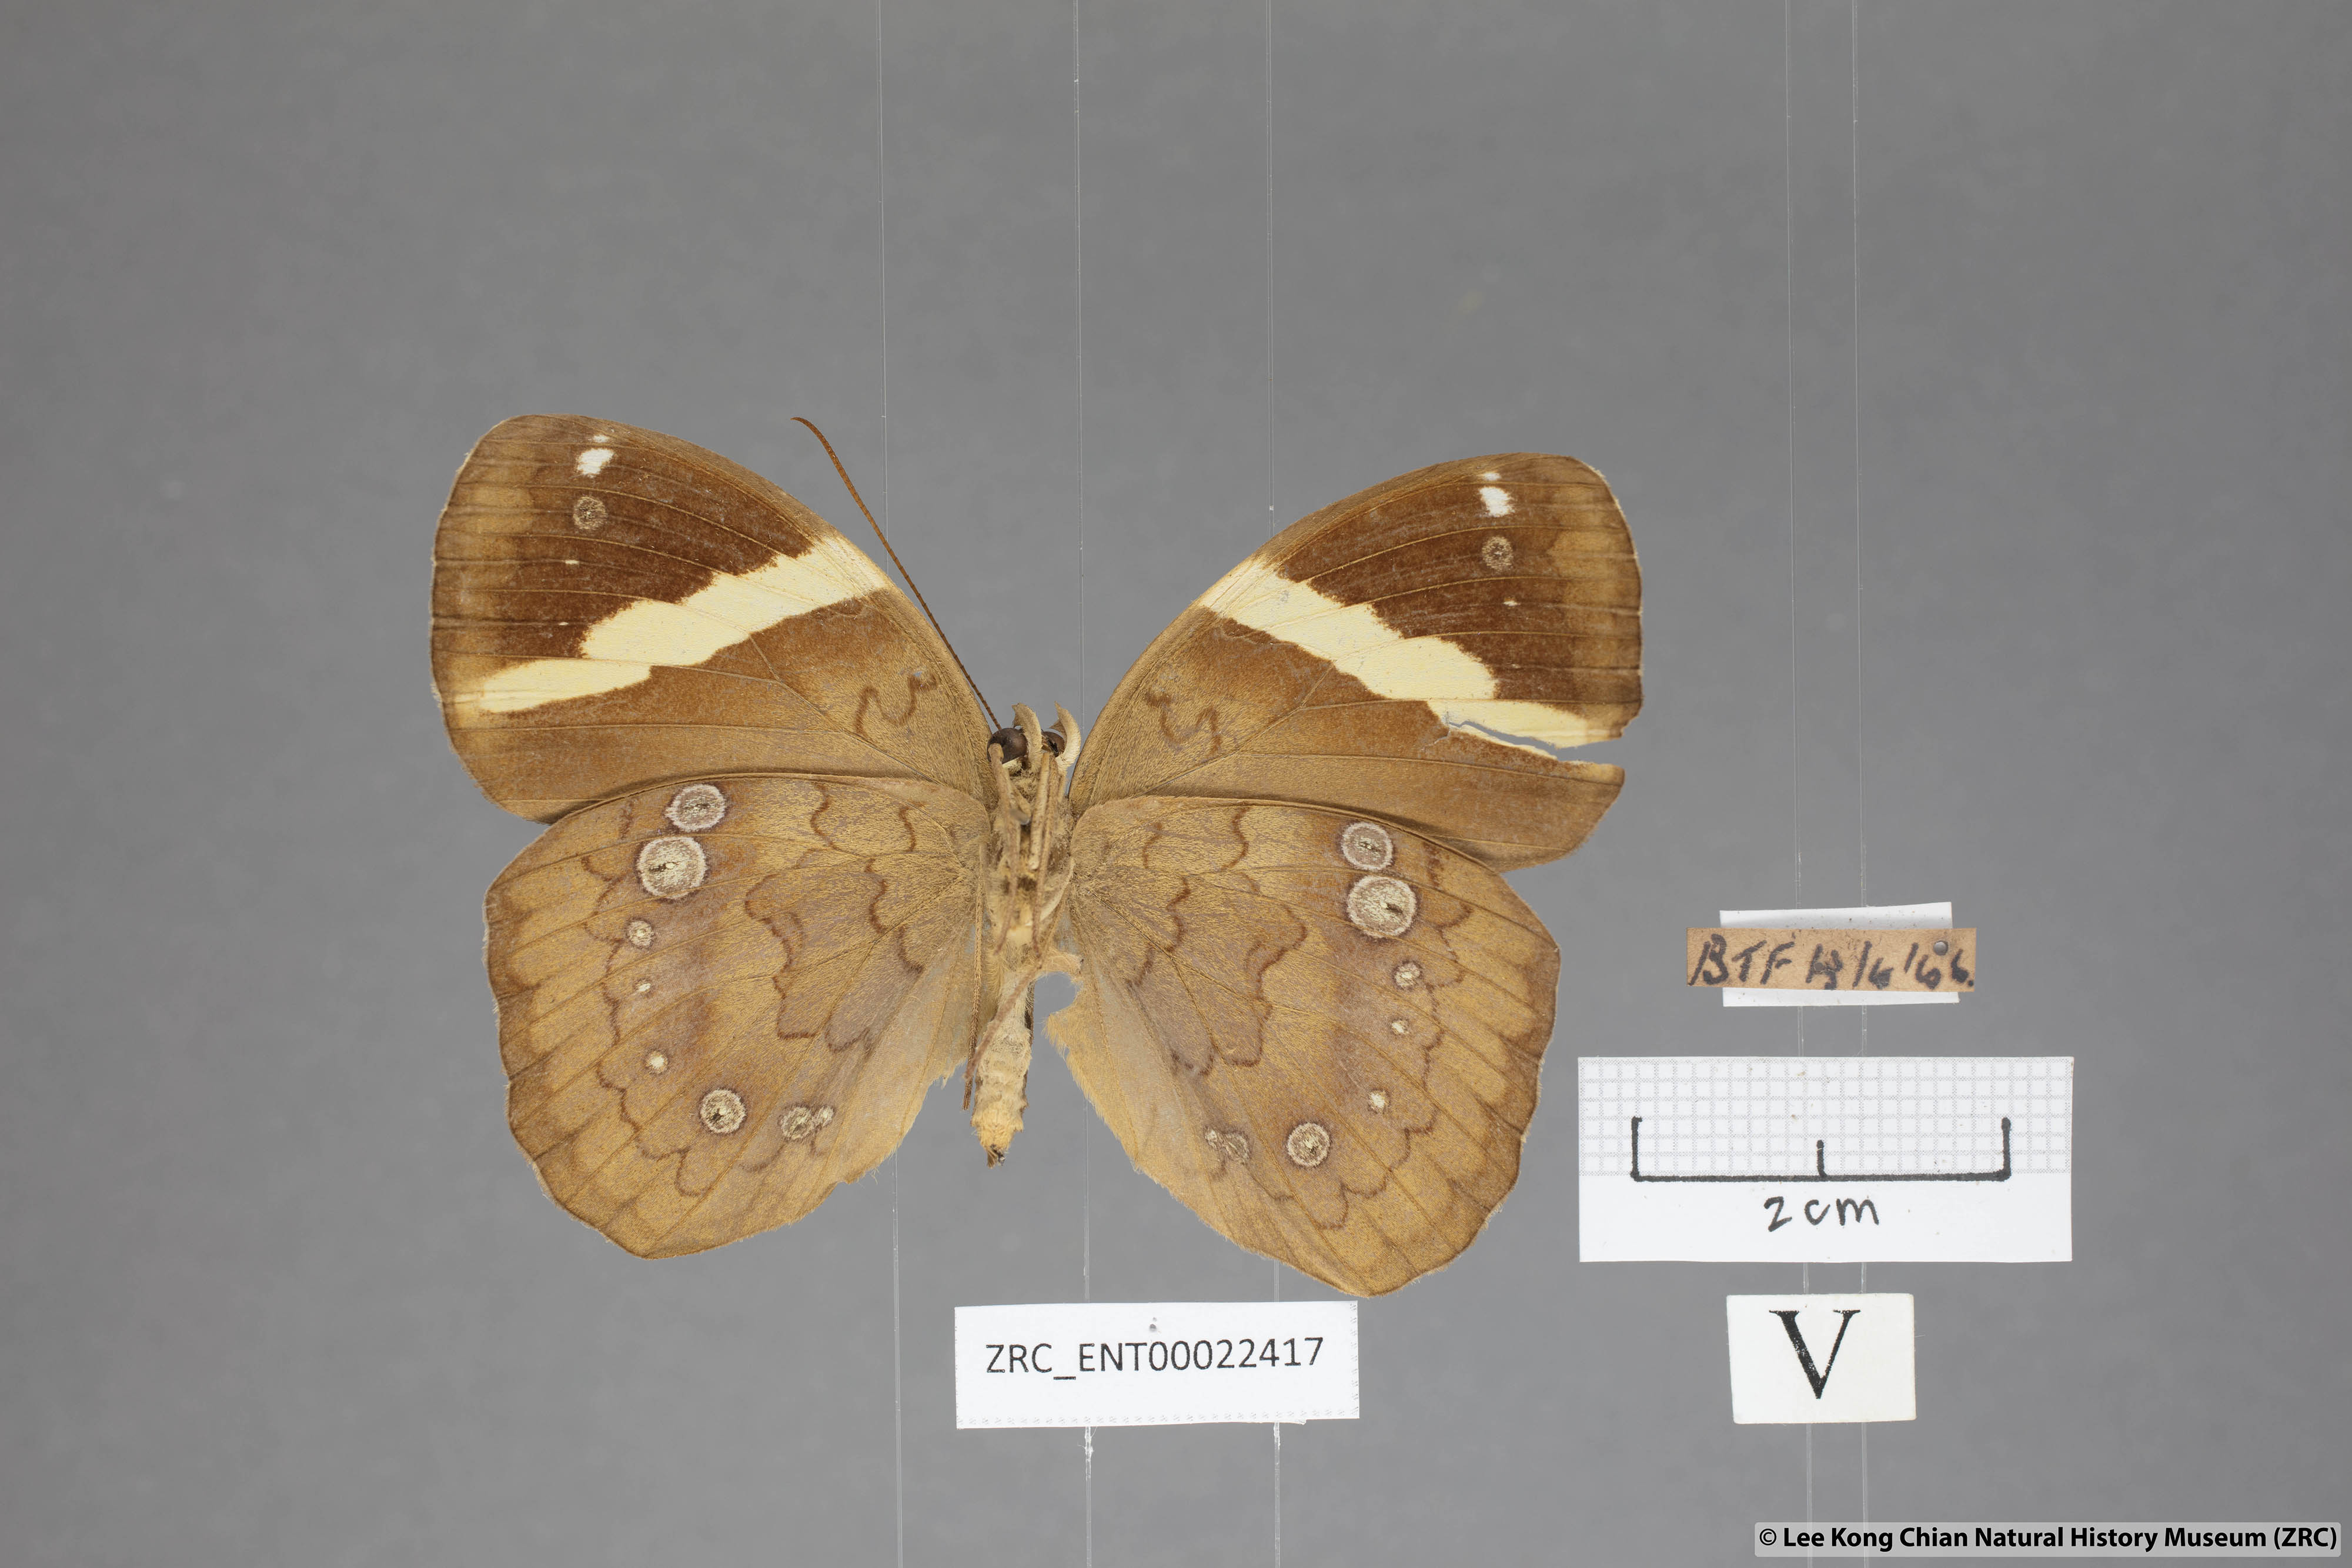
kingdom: Animalia
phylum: Arthropoda
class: Insecta
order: Lepidoptera
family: Nymphalidae
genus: Xanthotaenia
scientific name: Xanthotaenia busiris
